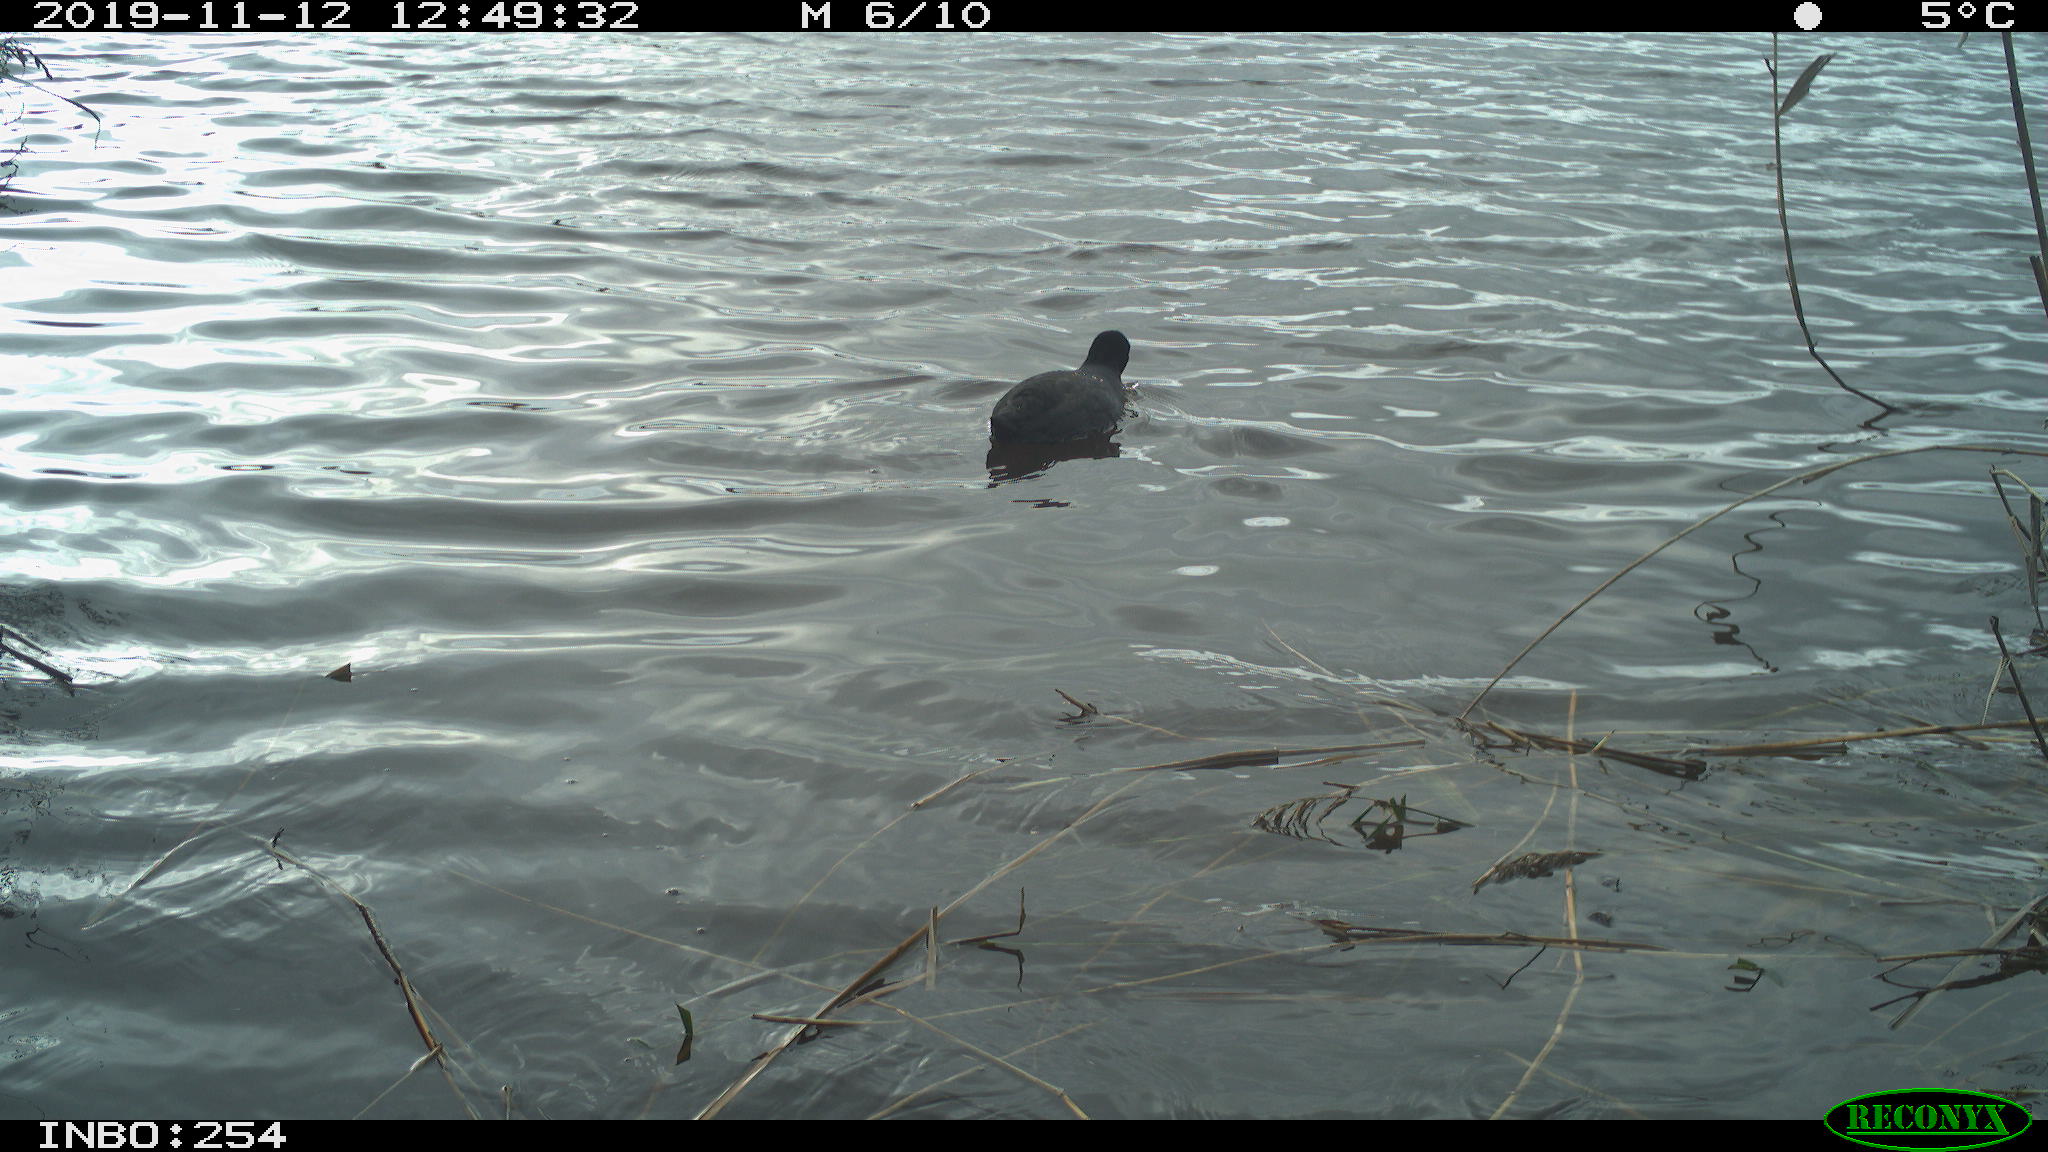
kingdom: Animalia
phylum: Chordata
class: Aves
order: Gruiformes
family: Rallidae
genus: Fulica
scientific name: Fulica atra
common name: Eurasian coot
